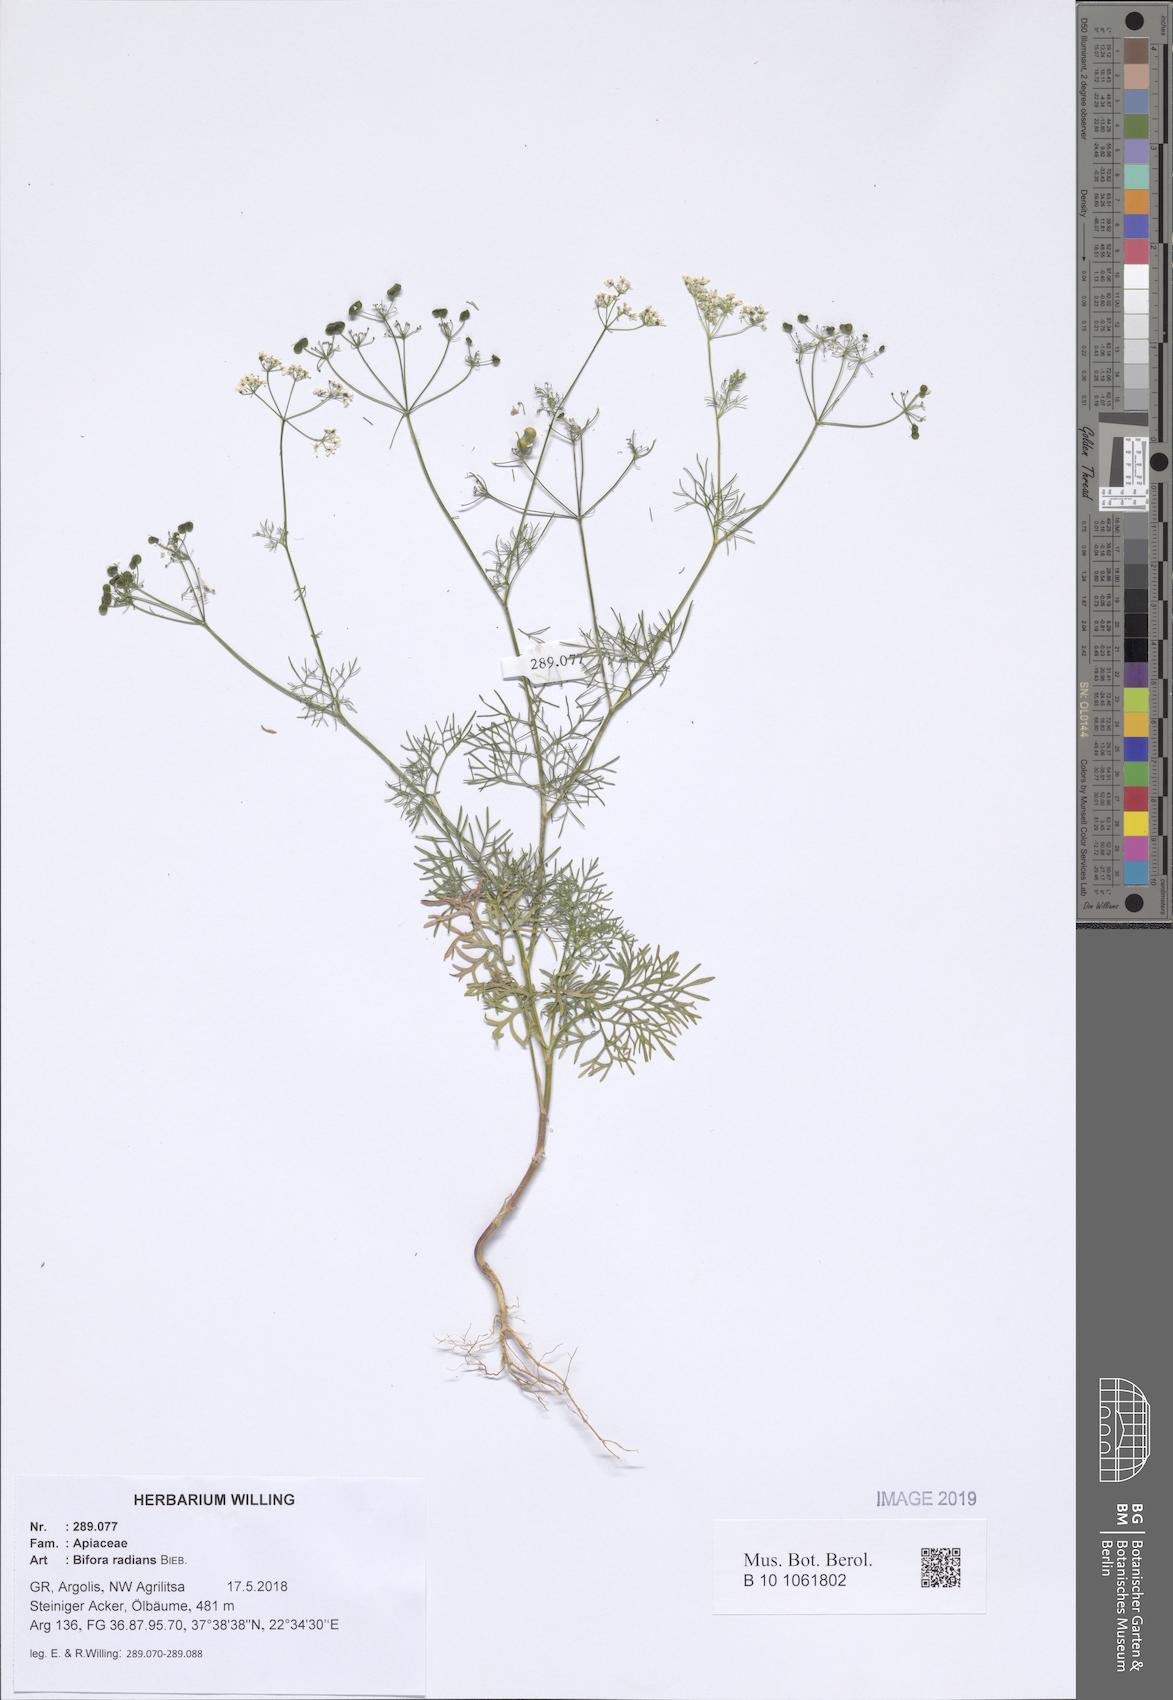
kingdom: Plantae
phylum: Tracheophyta
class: Magnoliopsida
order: Apiales
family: Apiaceae
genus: Bifora
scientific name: Bifora radians
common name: Wild bishop
